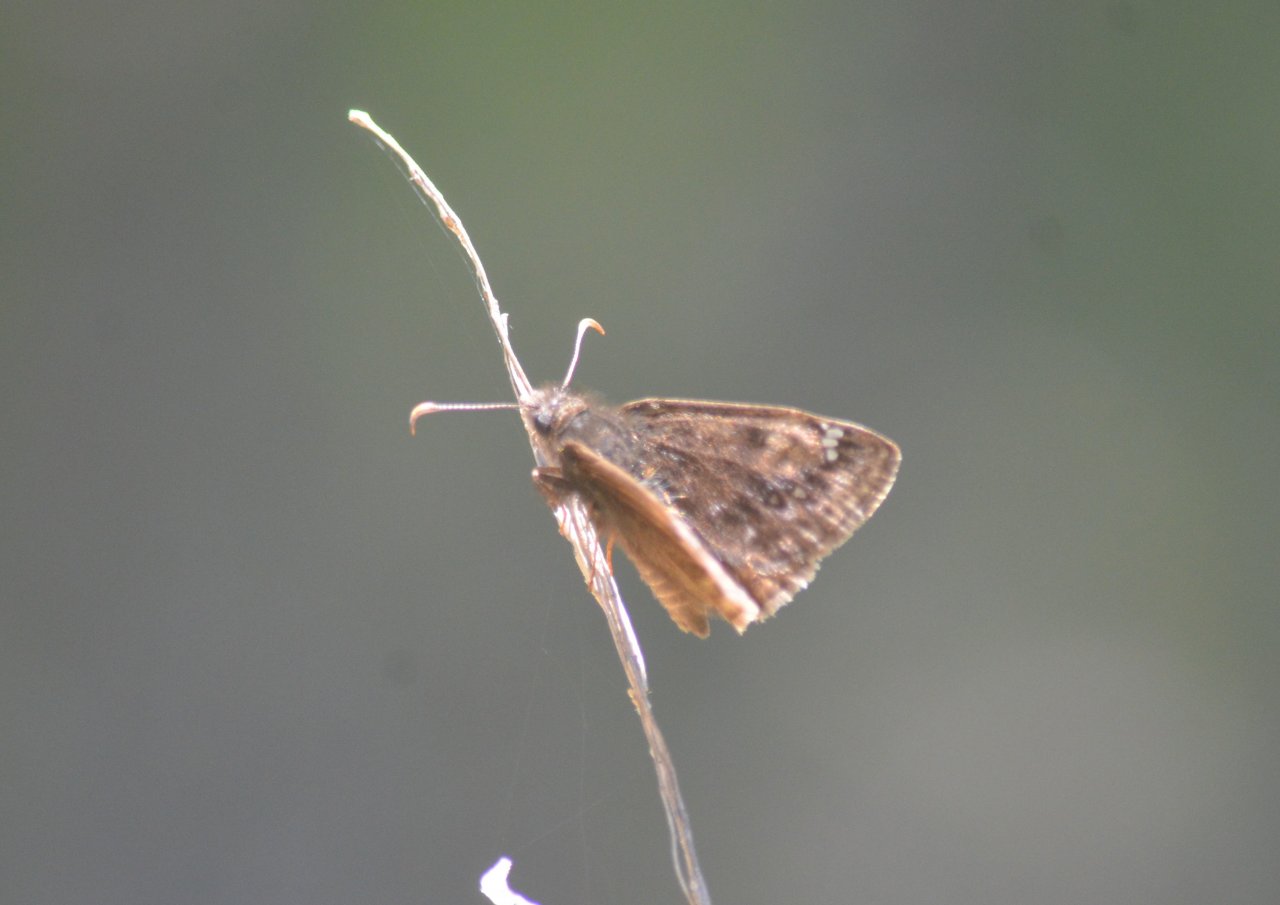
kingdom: Animalia
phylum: Arthropoda
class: Insecta
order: Lepidoptera
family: Hesperiidae
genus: Erynnis
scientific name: Erynnis
